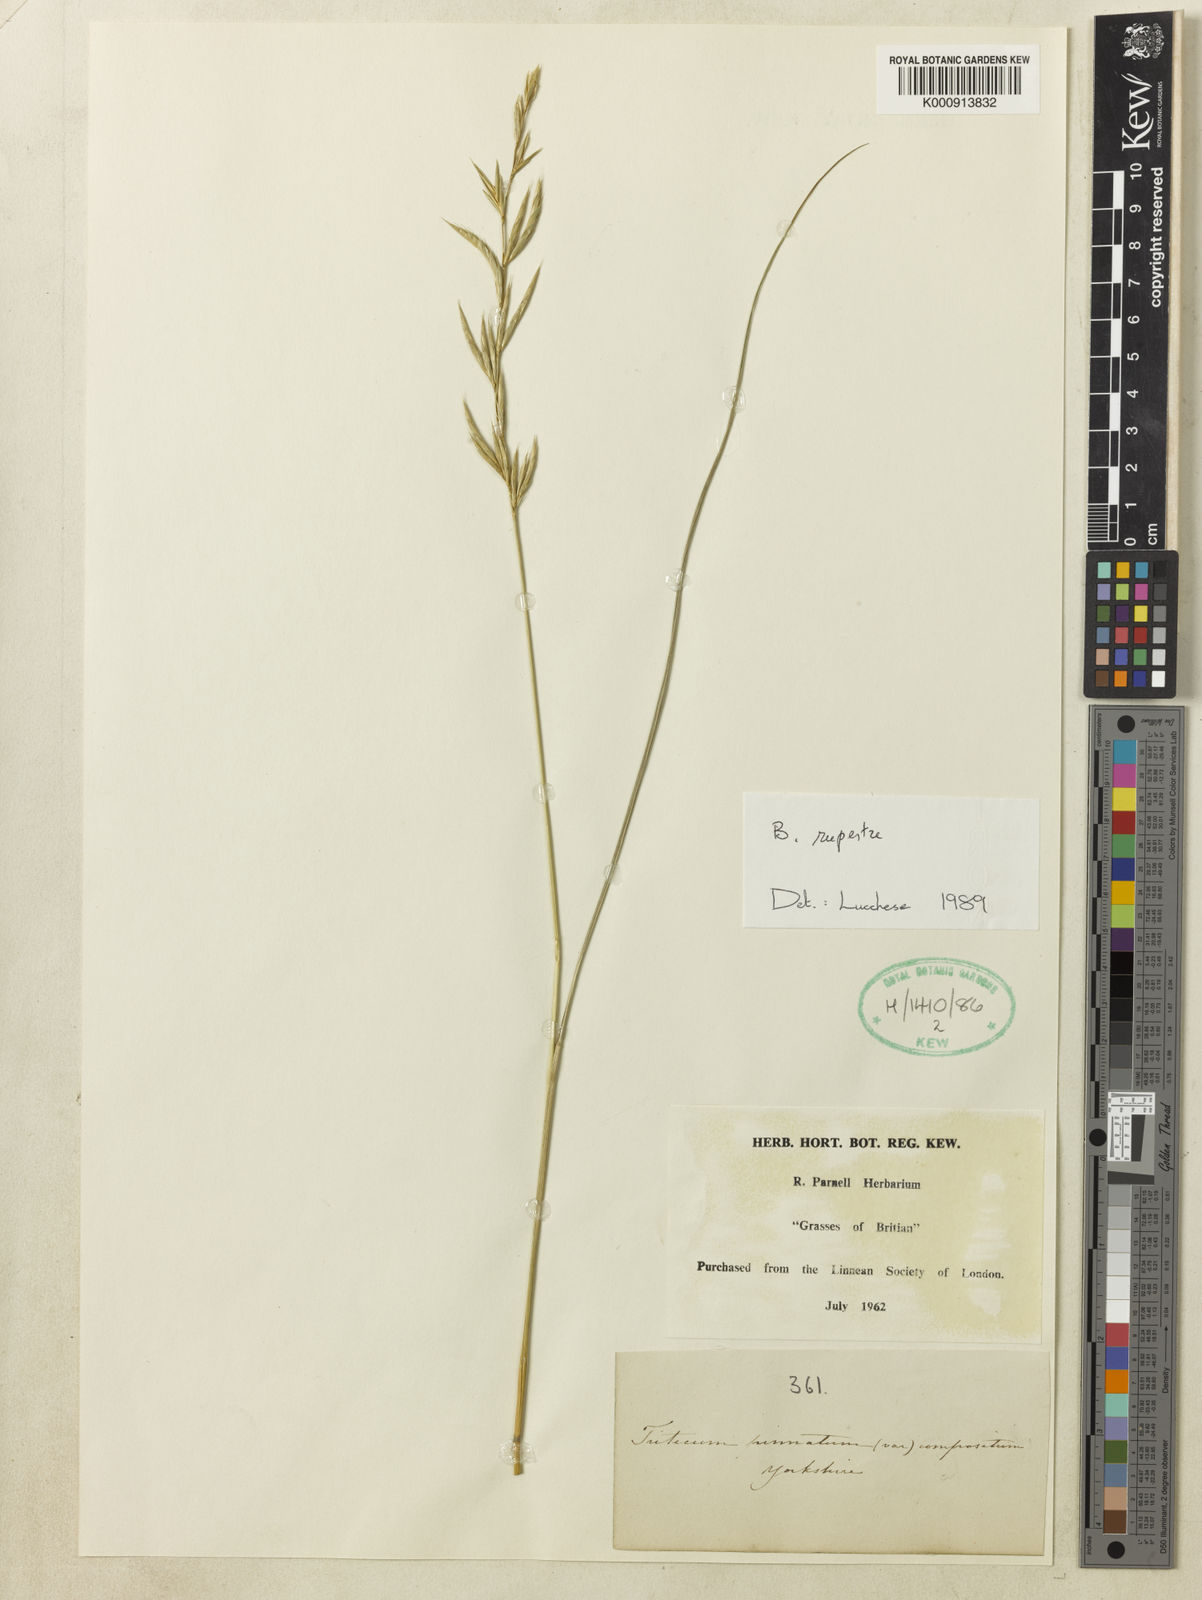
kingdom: Plantae
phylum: Tracheophyta
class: Liliopsida
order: Poales
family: Poaceae
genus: Brachypodium
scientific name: Brachypodium pinnatum
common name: Tor grass
